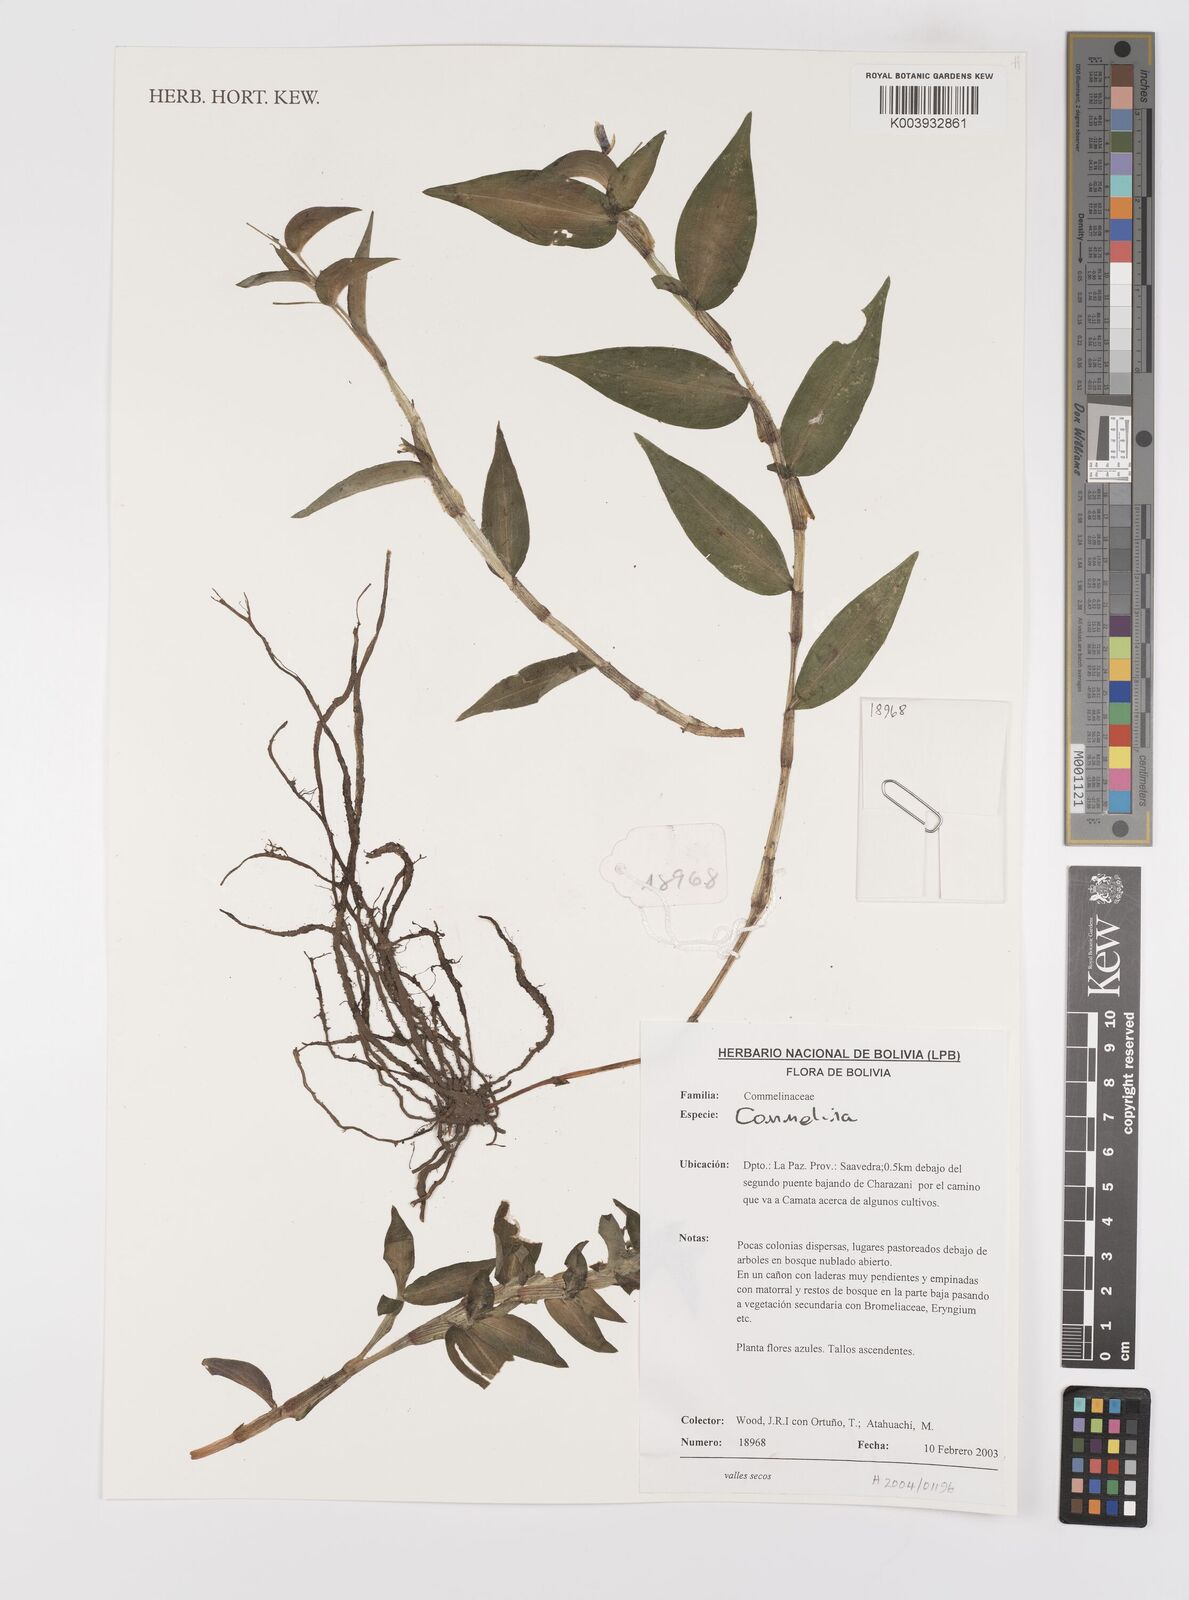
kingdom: Plantae
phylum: Tracheophyta
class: Liliopsida
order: Commelinales
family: Commelinaceae
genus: Commelina
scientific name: Commelina
